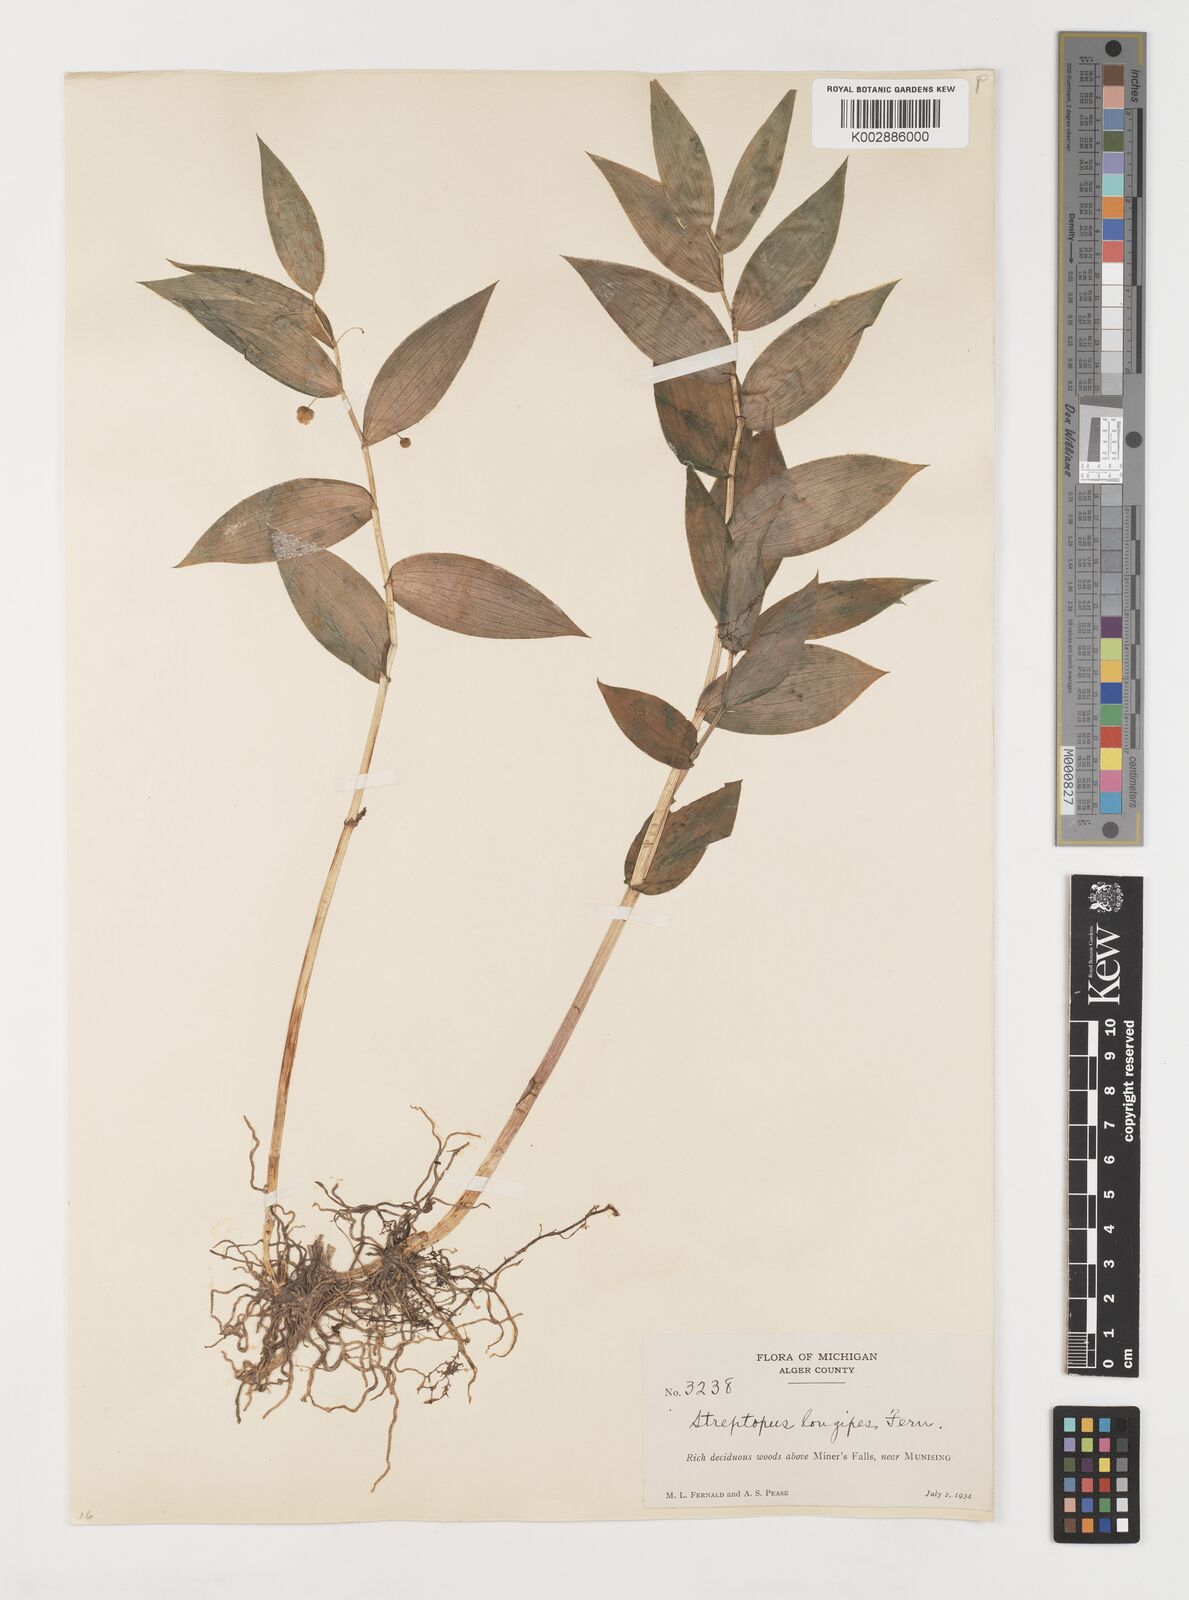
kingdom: Plantae
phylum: Tracheophyta
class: Liliopsida
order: Liliales
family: Liliaceae
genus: Streptopus
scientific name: Streptopus lanceolatus
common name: Rose mandarin
